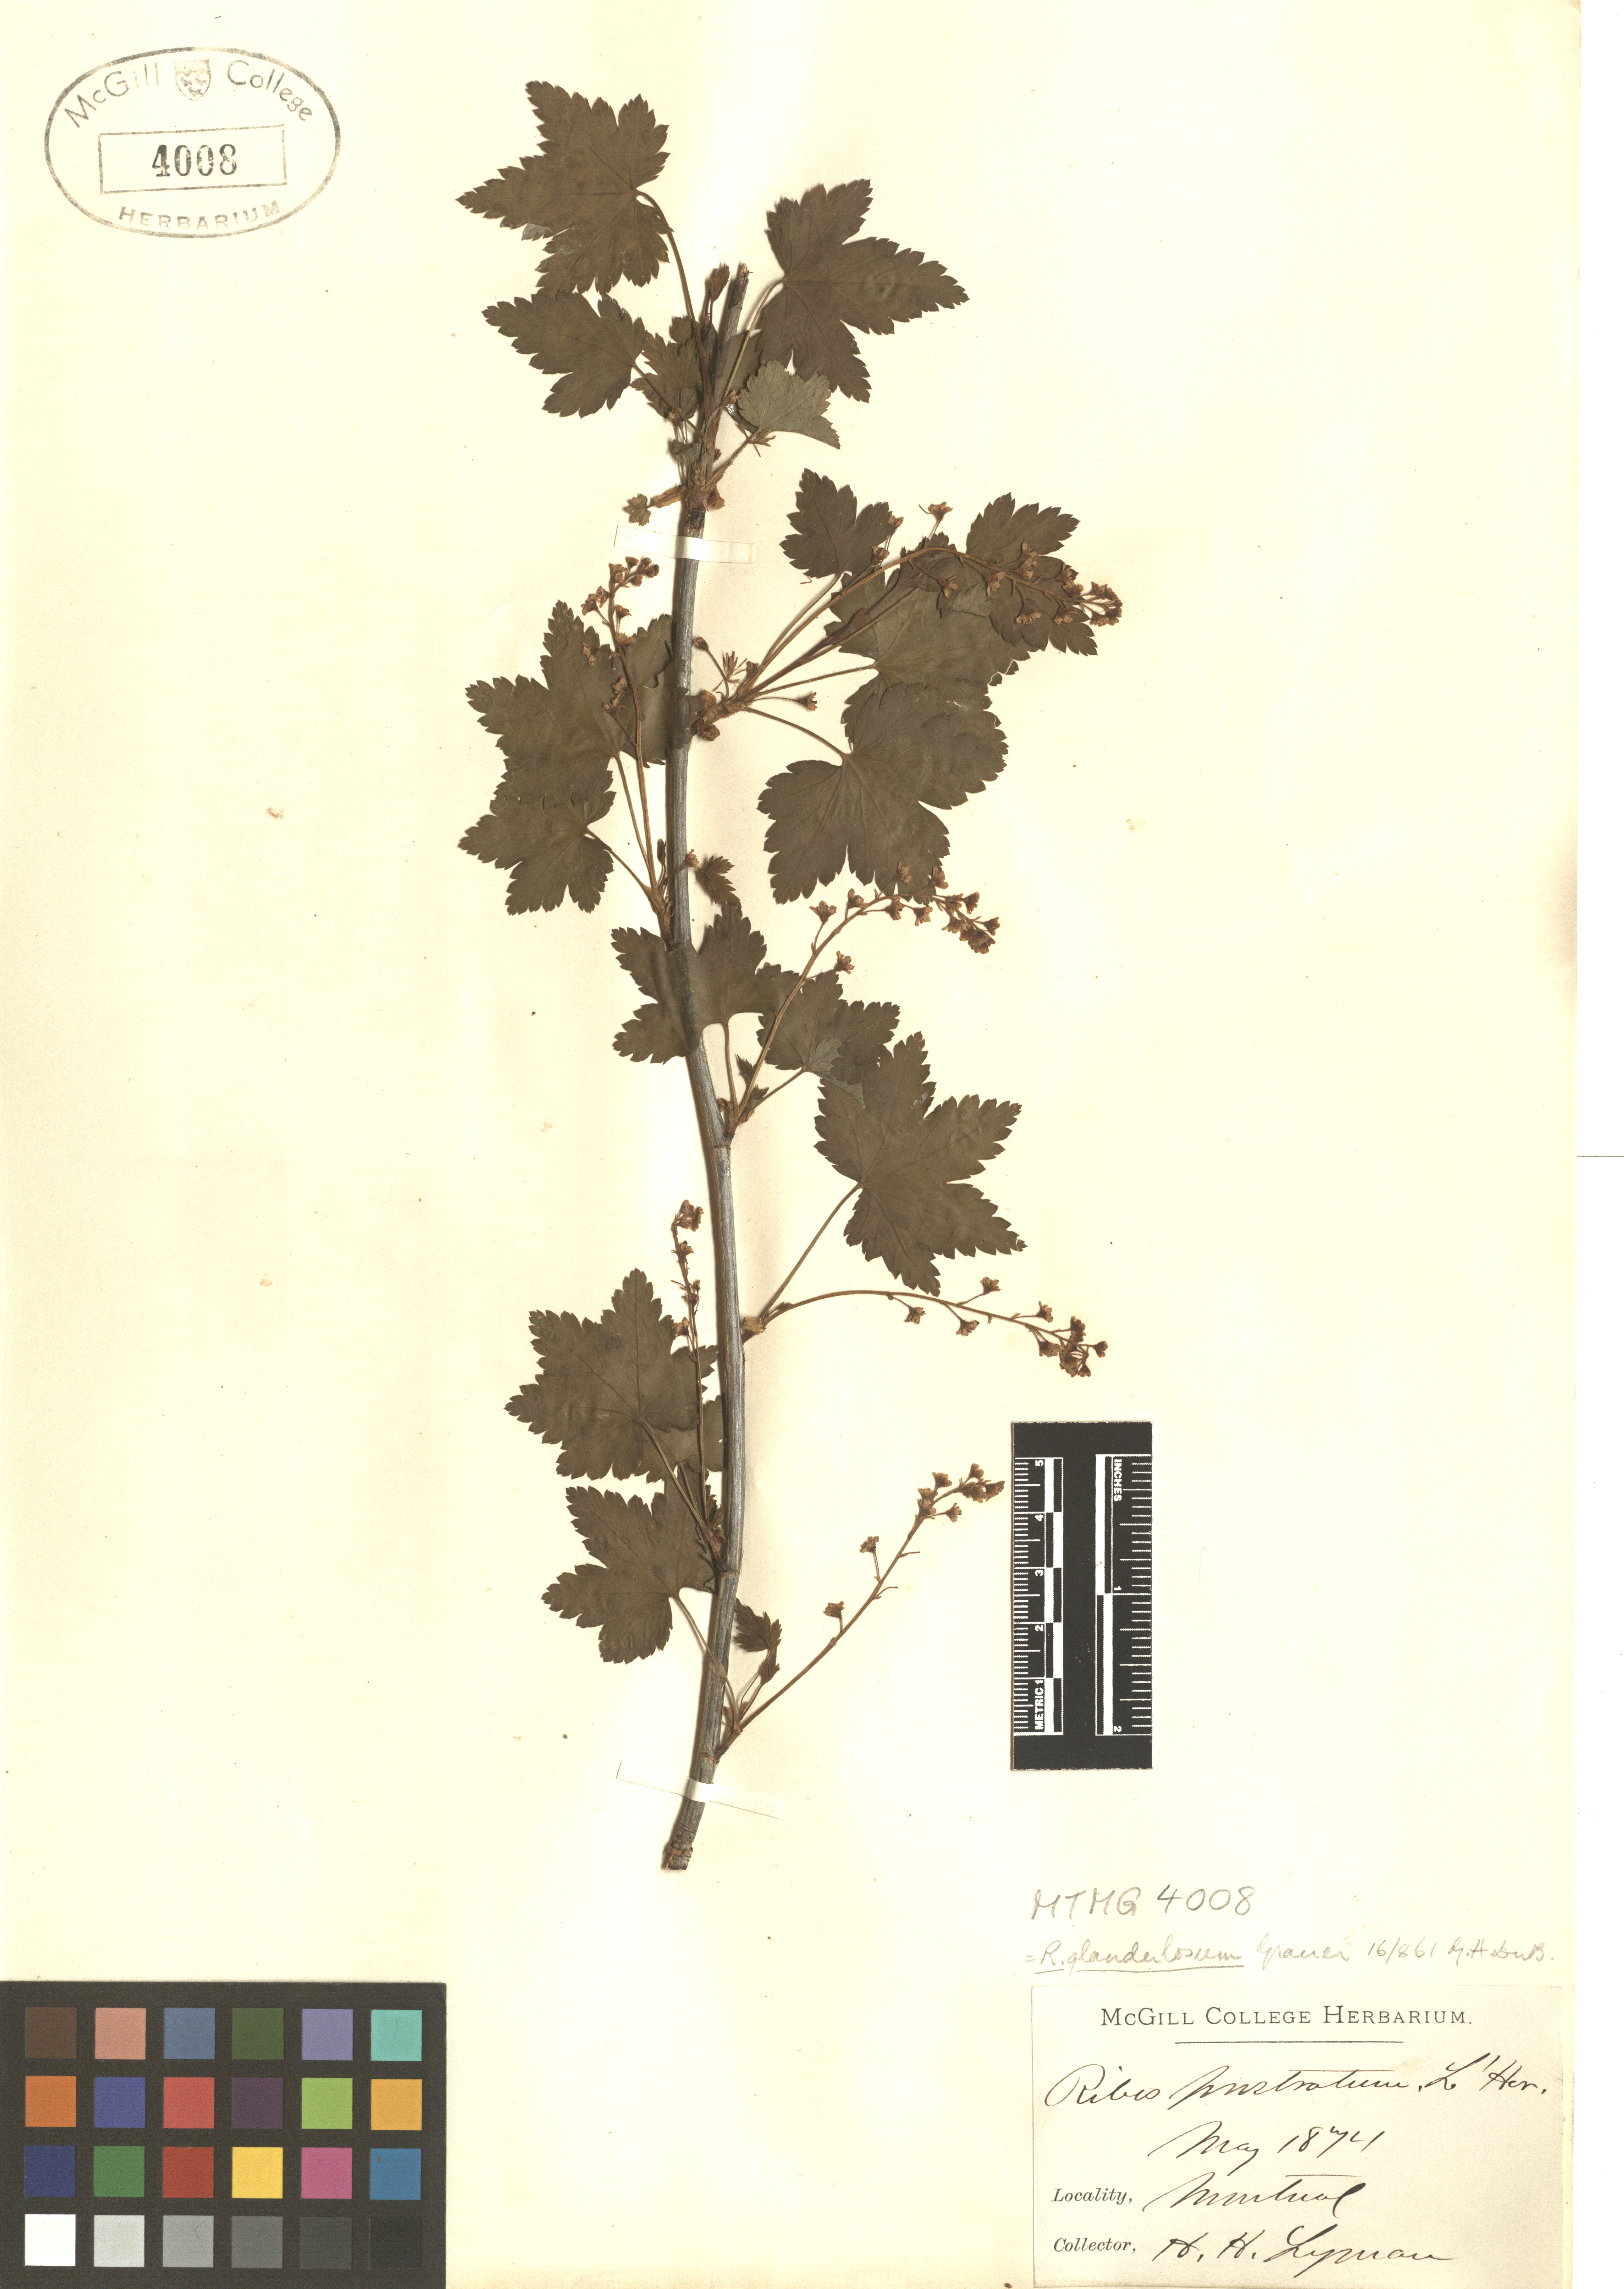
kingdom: Plantae
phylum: Tracheophyta
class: Magnoliopsida
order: Saxifragales
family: Grossulariaceae
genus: Ribes
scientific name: Ribes glandulosum
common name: Skunk currant
